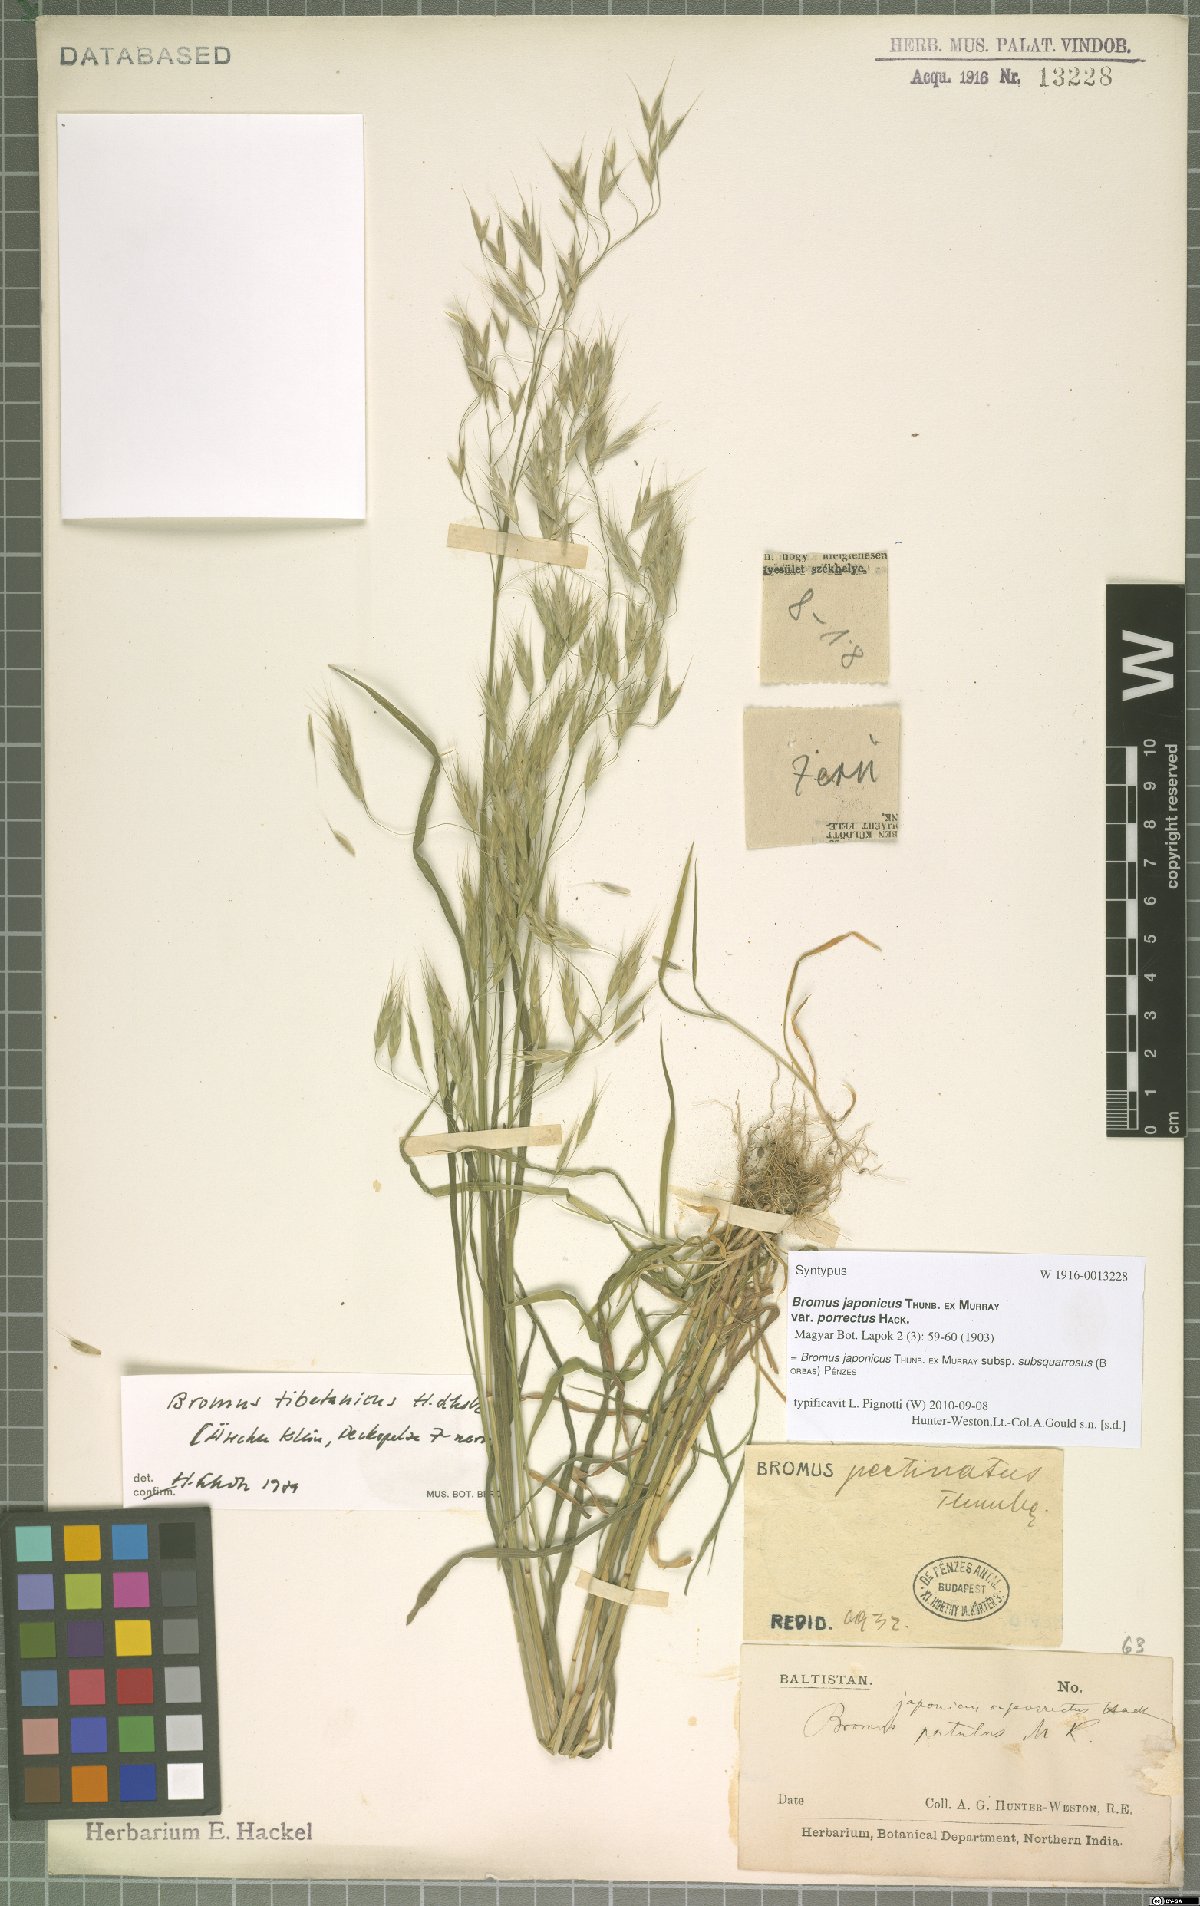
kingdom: Plantae
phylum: Tracheophyta
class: Liliopsida
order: Poales
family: Poaceae
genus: Bromus
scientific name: Bromus japonicus
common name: Japanese brome
